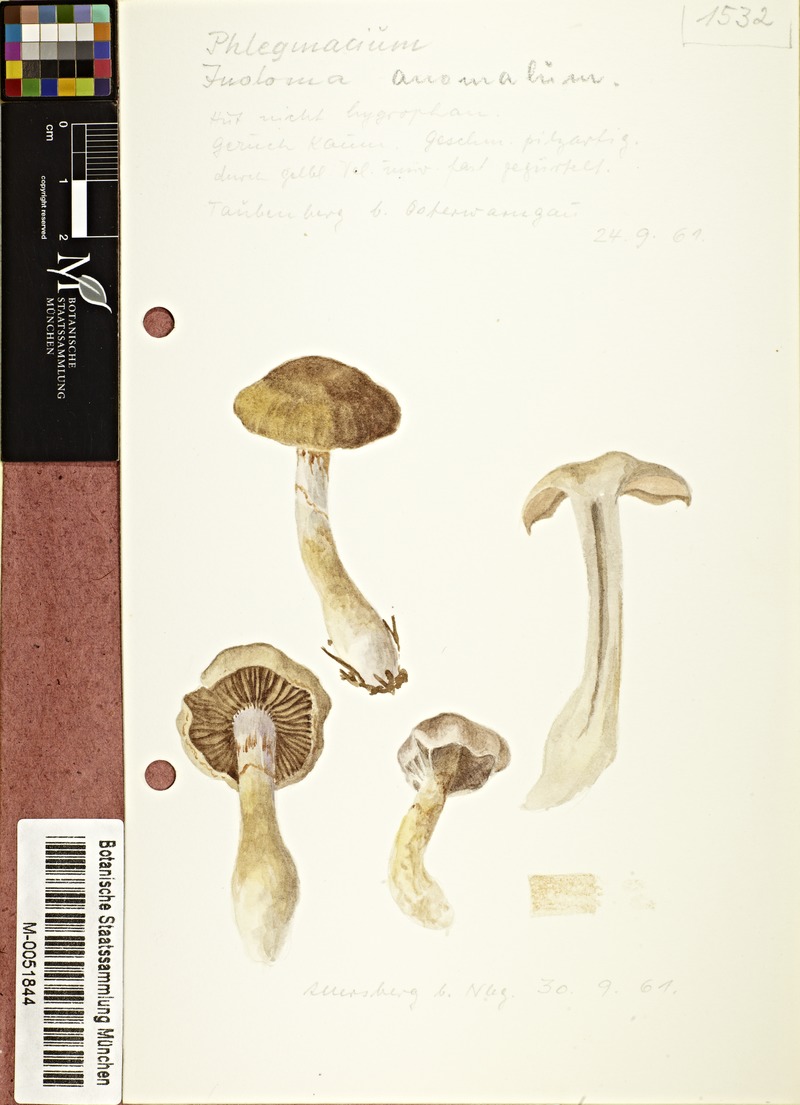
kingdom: Fungi
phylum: Basidiomycota
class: Agaricomycetes
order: Agaricales
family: Cortinariaceae
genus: Cortinarius
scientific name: Cortinarius anomalus
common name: Variable webcap
